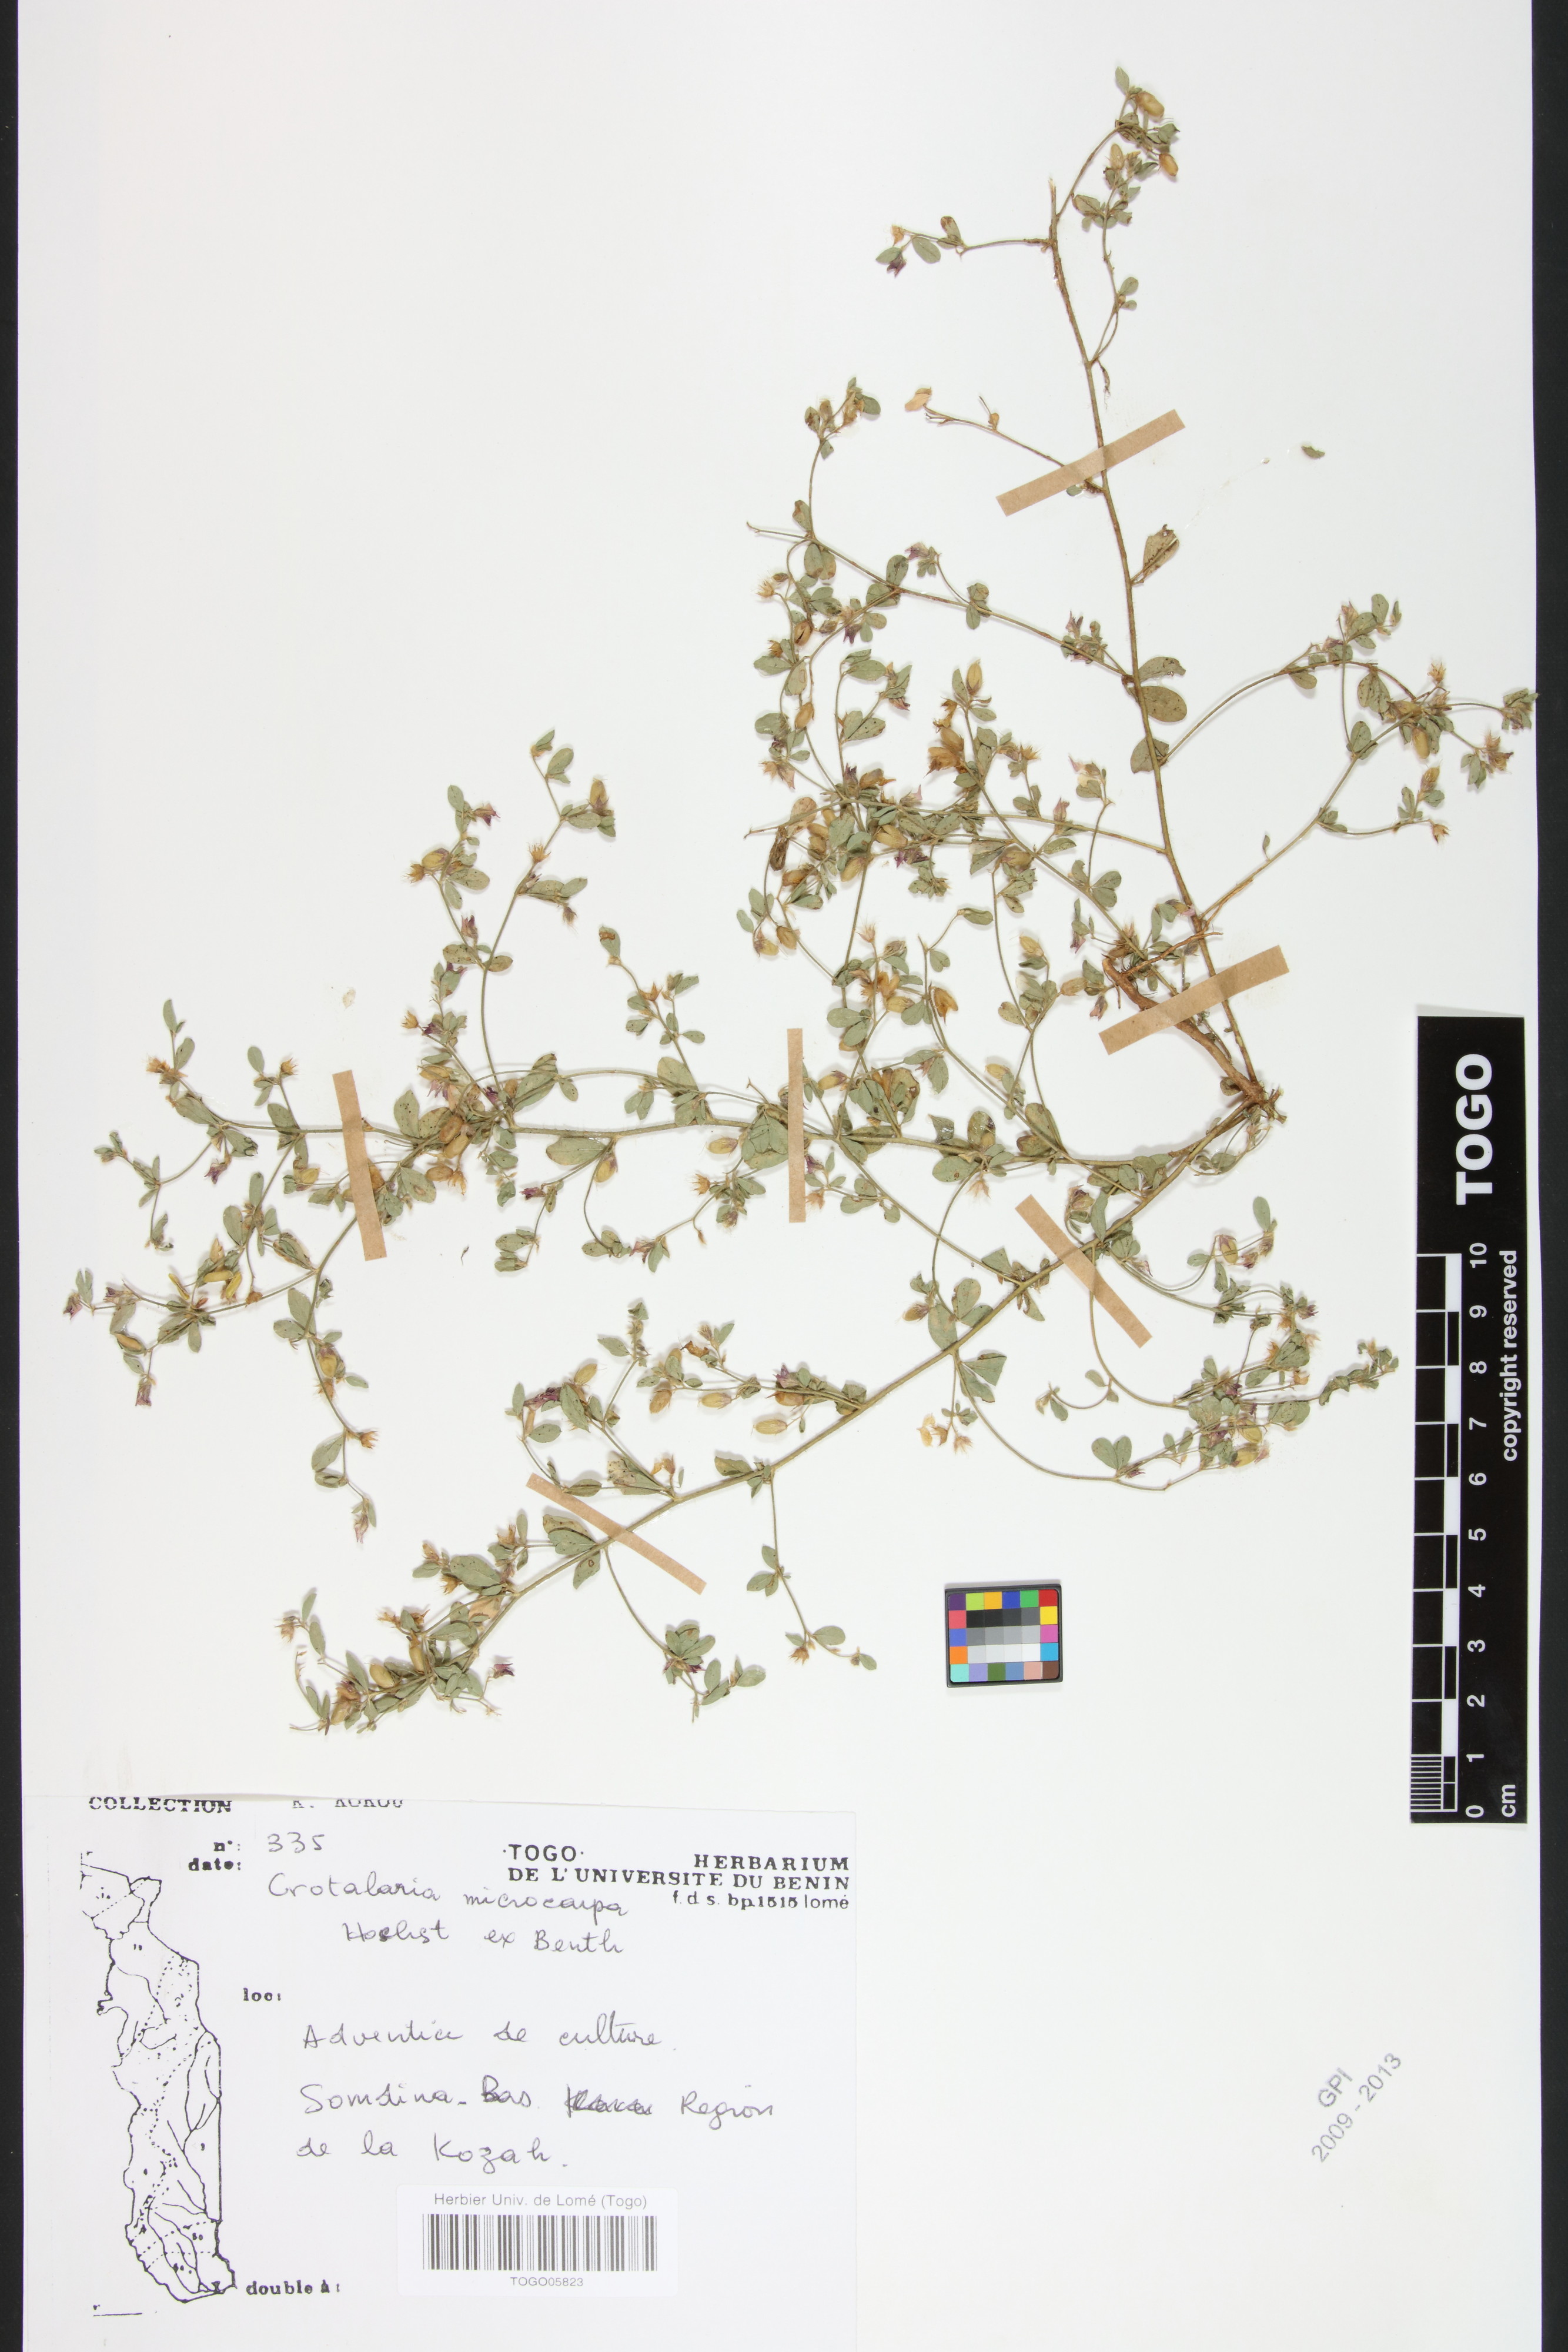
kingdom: Plantae
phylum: Tracheophyta
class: Magnoliopsida
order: Fabales
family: Fabaceae
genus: Crotalaria
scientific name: Crotalaria microcarpa
